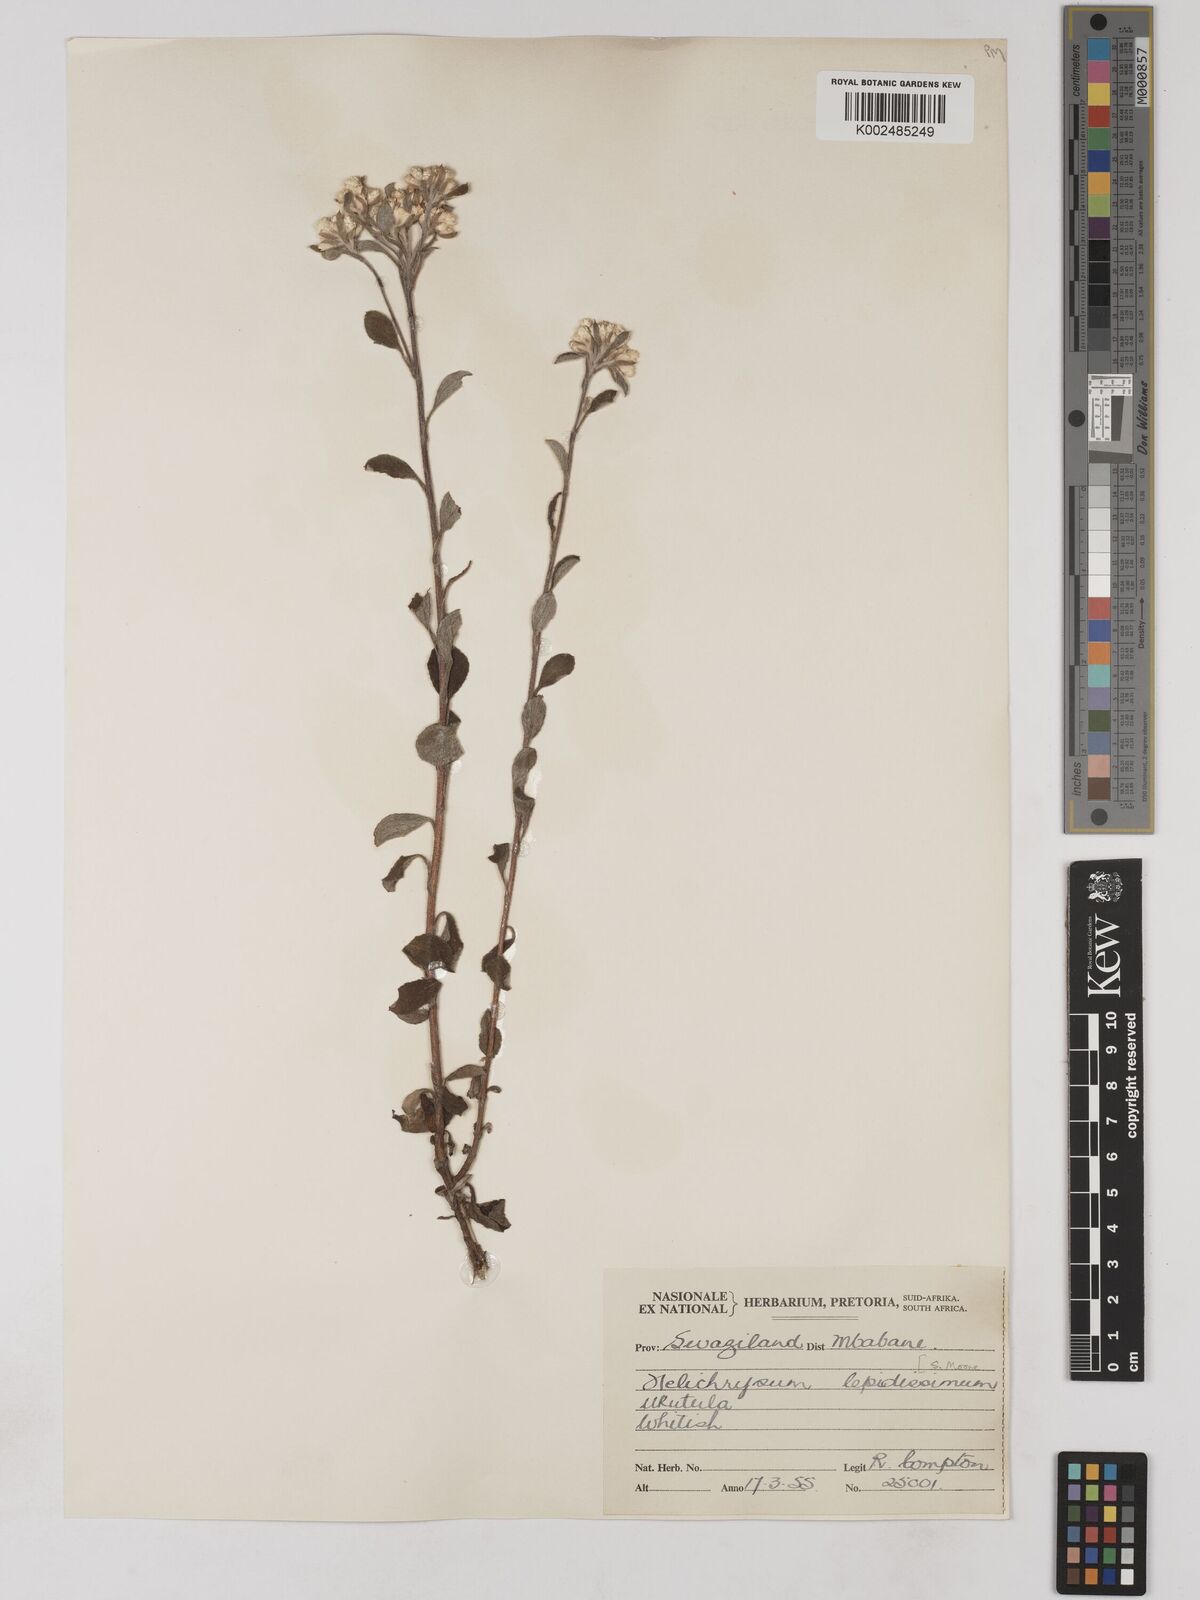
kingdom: Plantae
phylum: Tracheophyta
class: Magnoliopsida
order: Asterales
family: Asteraceae
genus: Helichrysum
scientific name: Helichrysum lepidissimum
